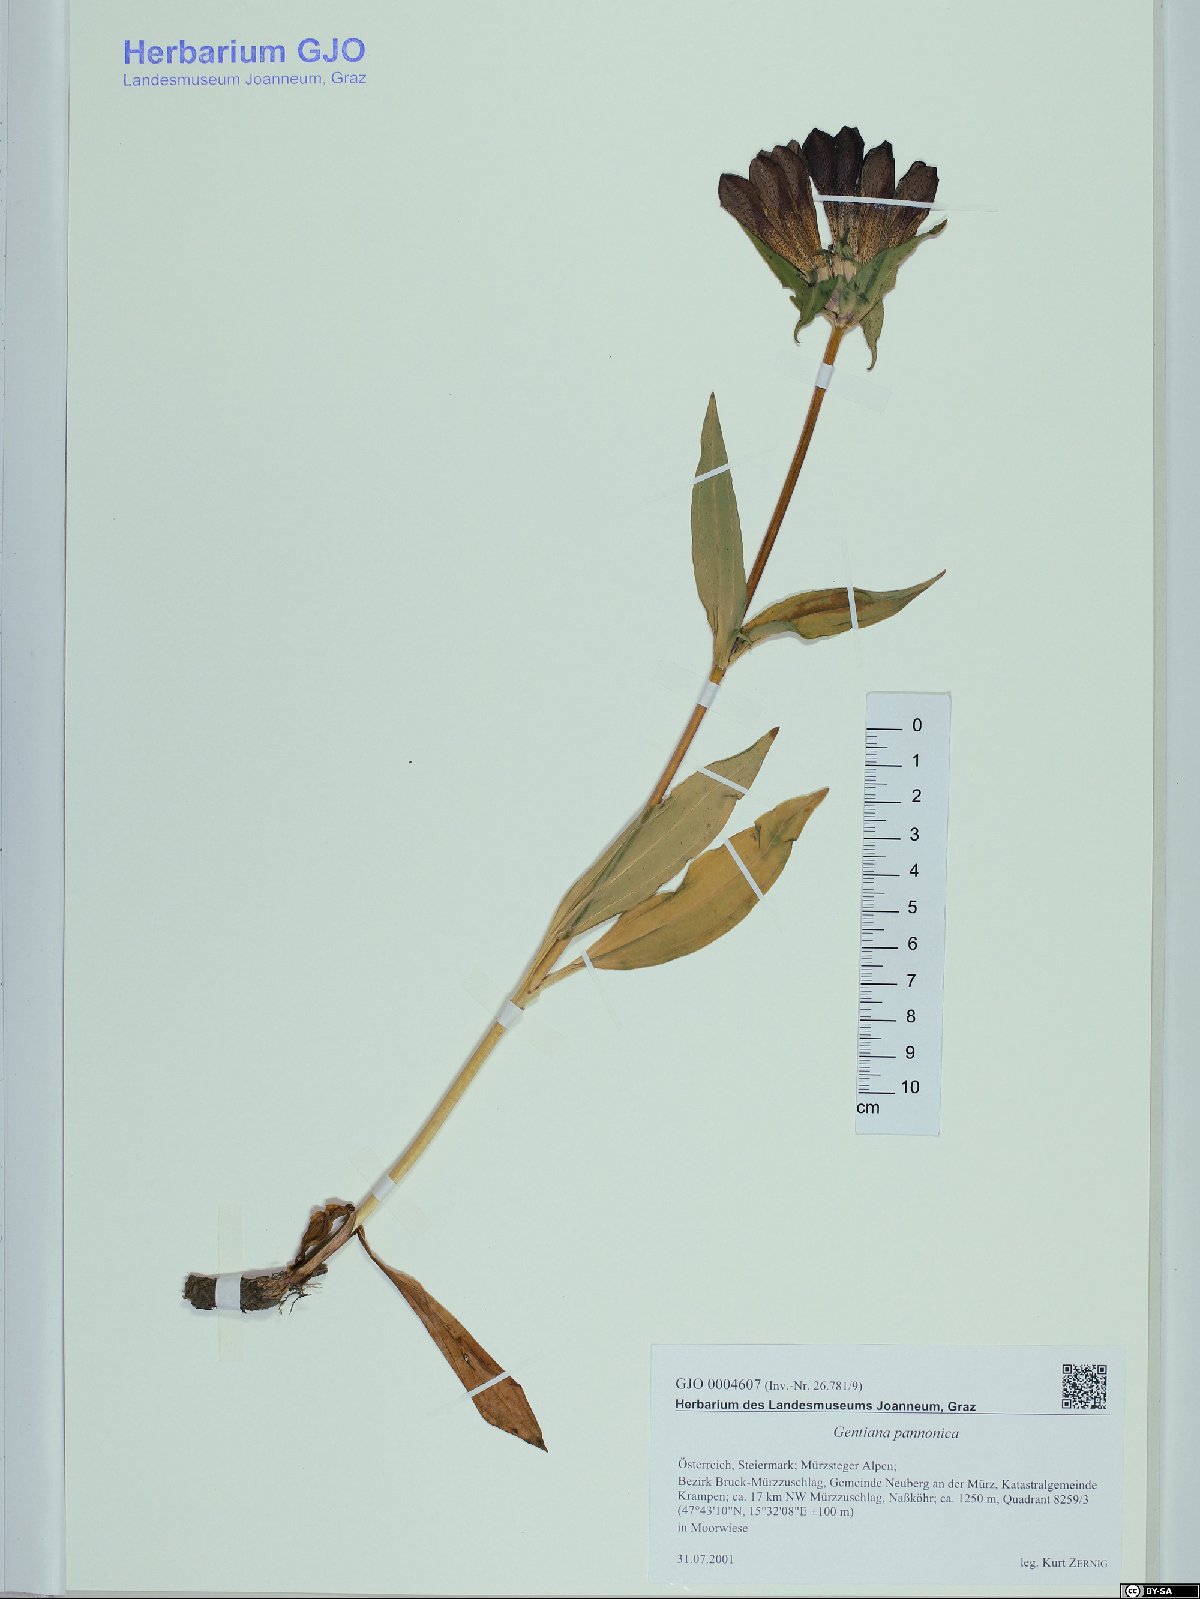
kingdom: Plantae
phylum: Tracheophyta
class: Magnoliopsida
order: Gentianales
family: Gentianaceae
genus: Gentiana
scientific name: Gentiana pannonica
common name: Hungarian gentian
